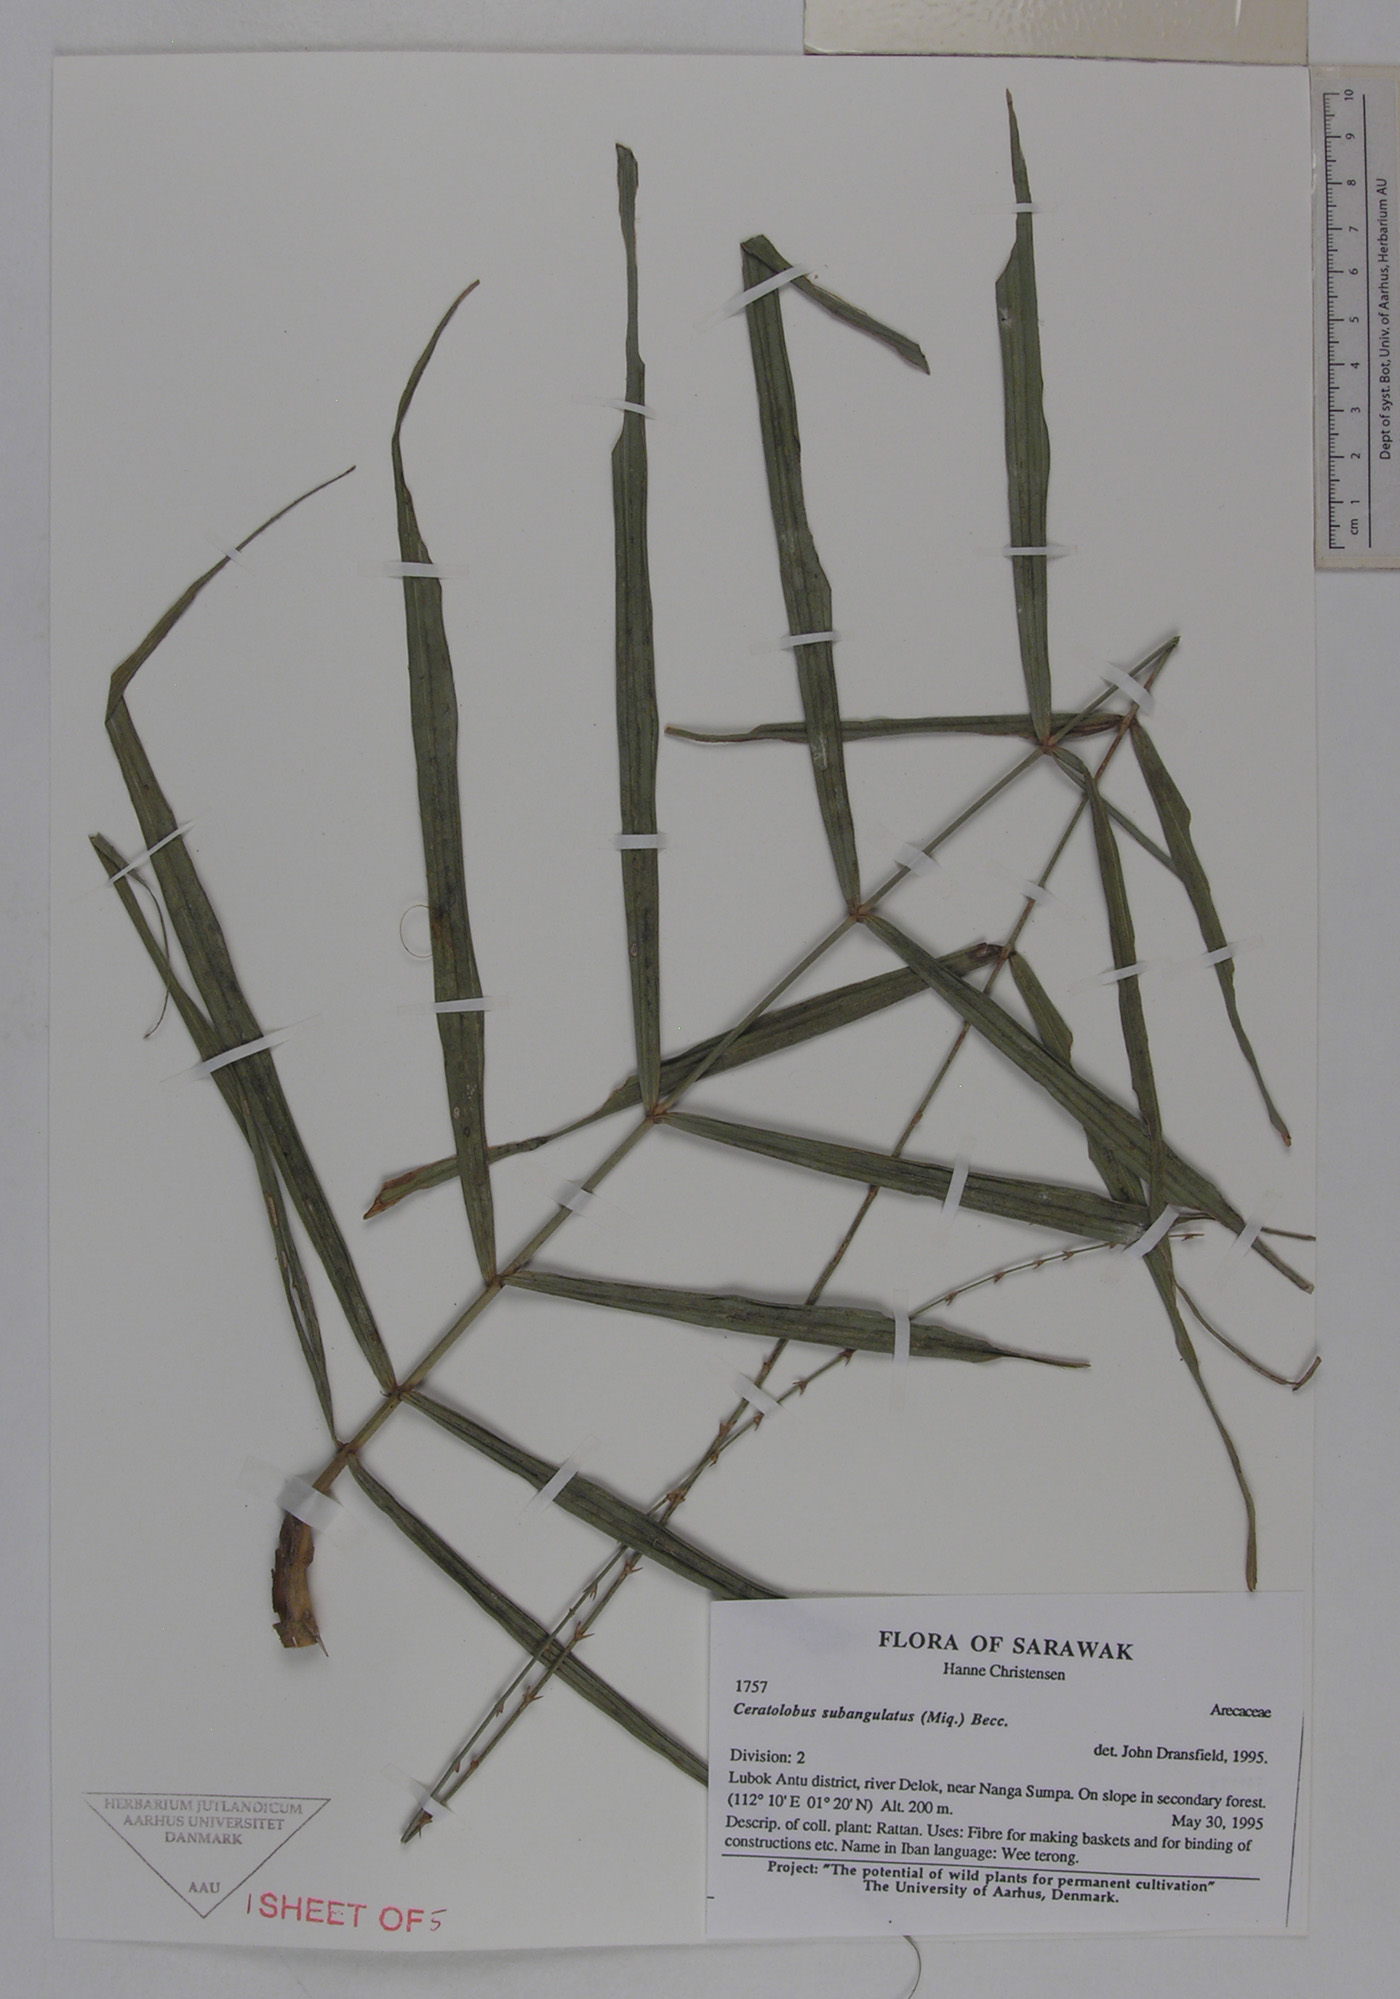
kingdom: Plantae
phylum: Tracheophyta
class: Liliopsida
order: Arecales
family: Arecaceae
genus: Calamus
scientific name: Calamus subangulatus
